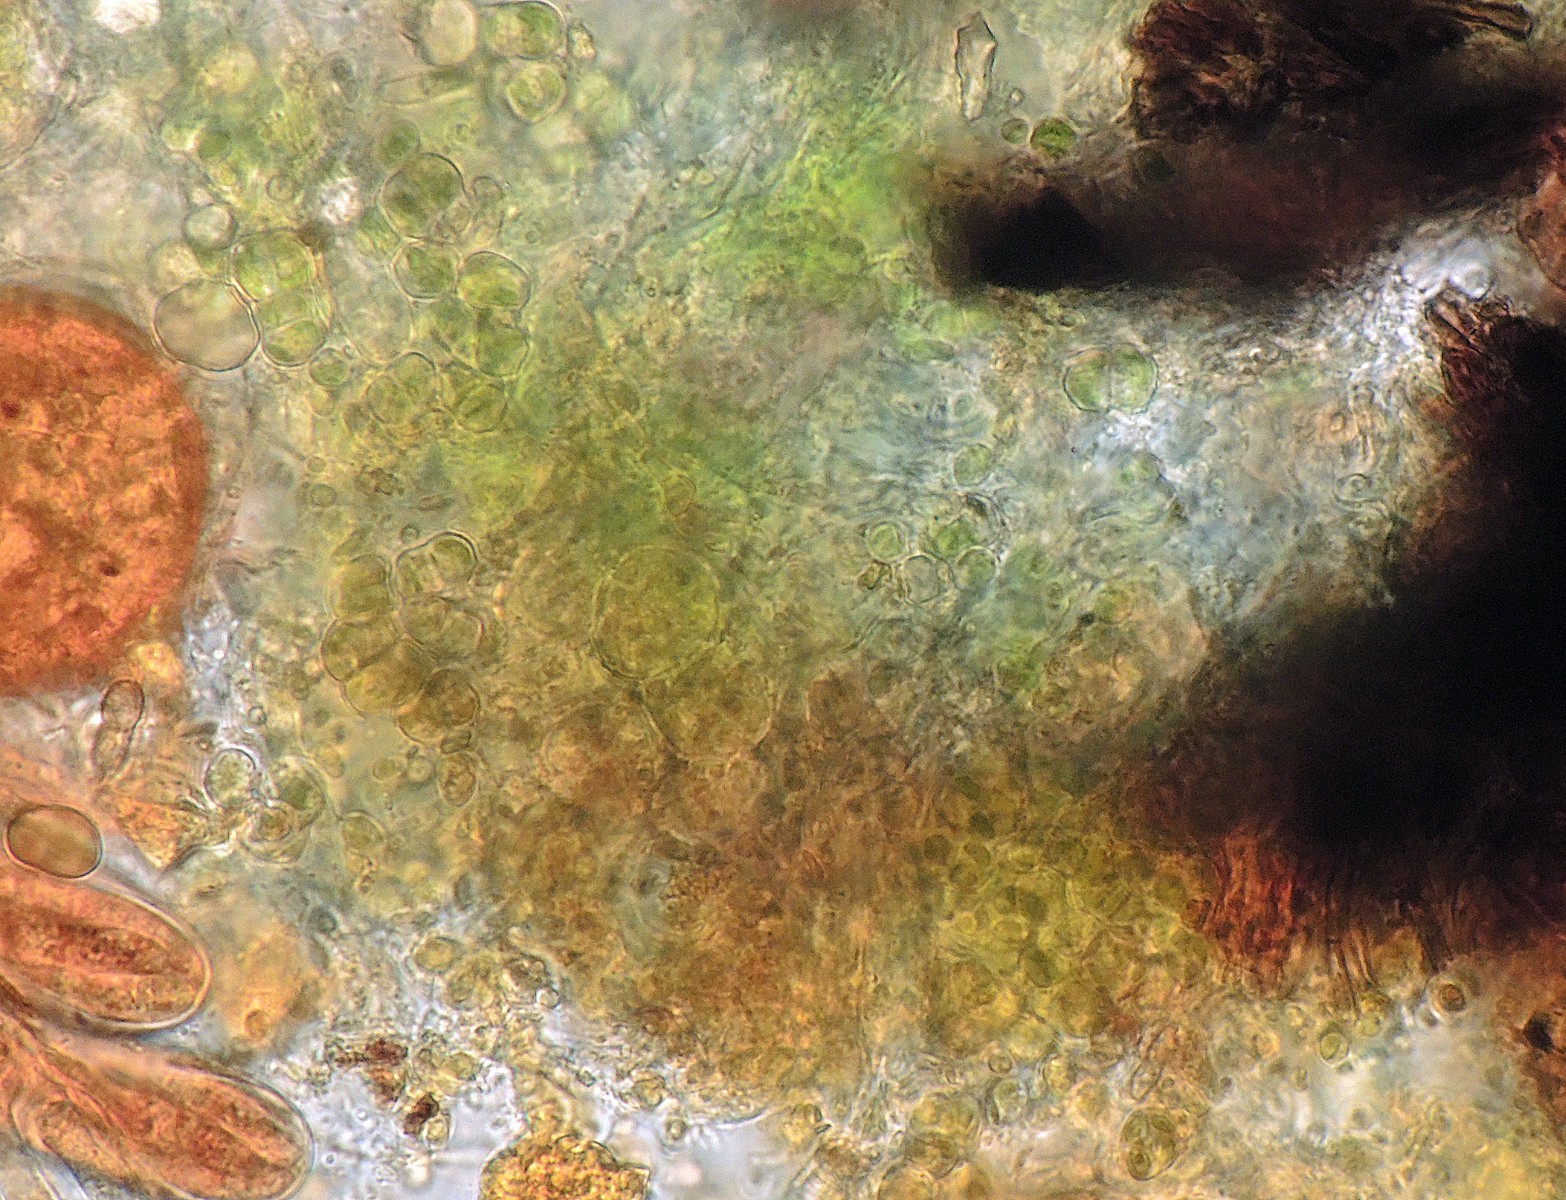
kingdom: Fungi
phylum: Ascomycota
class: Leotiomycetes
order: Helotiales
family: Helotiaceae
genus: Durella
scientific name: Durella connivens
